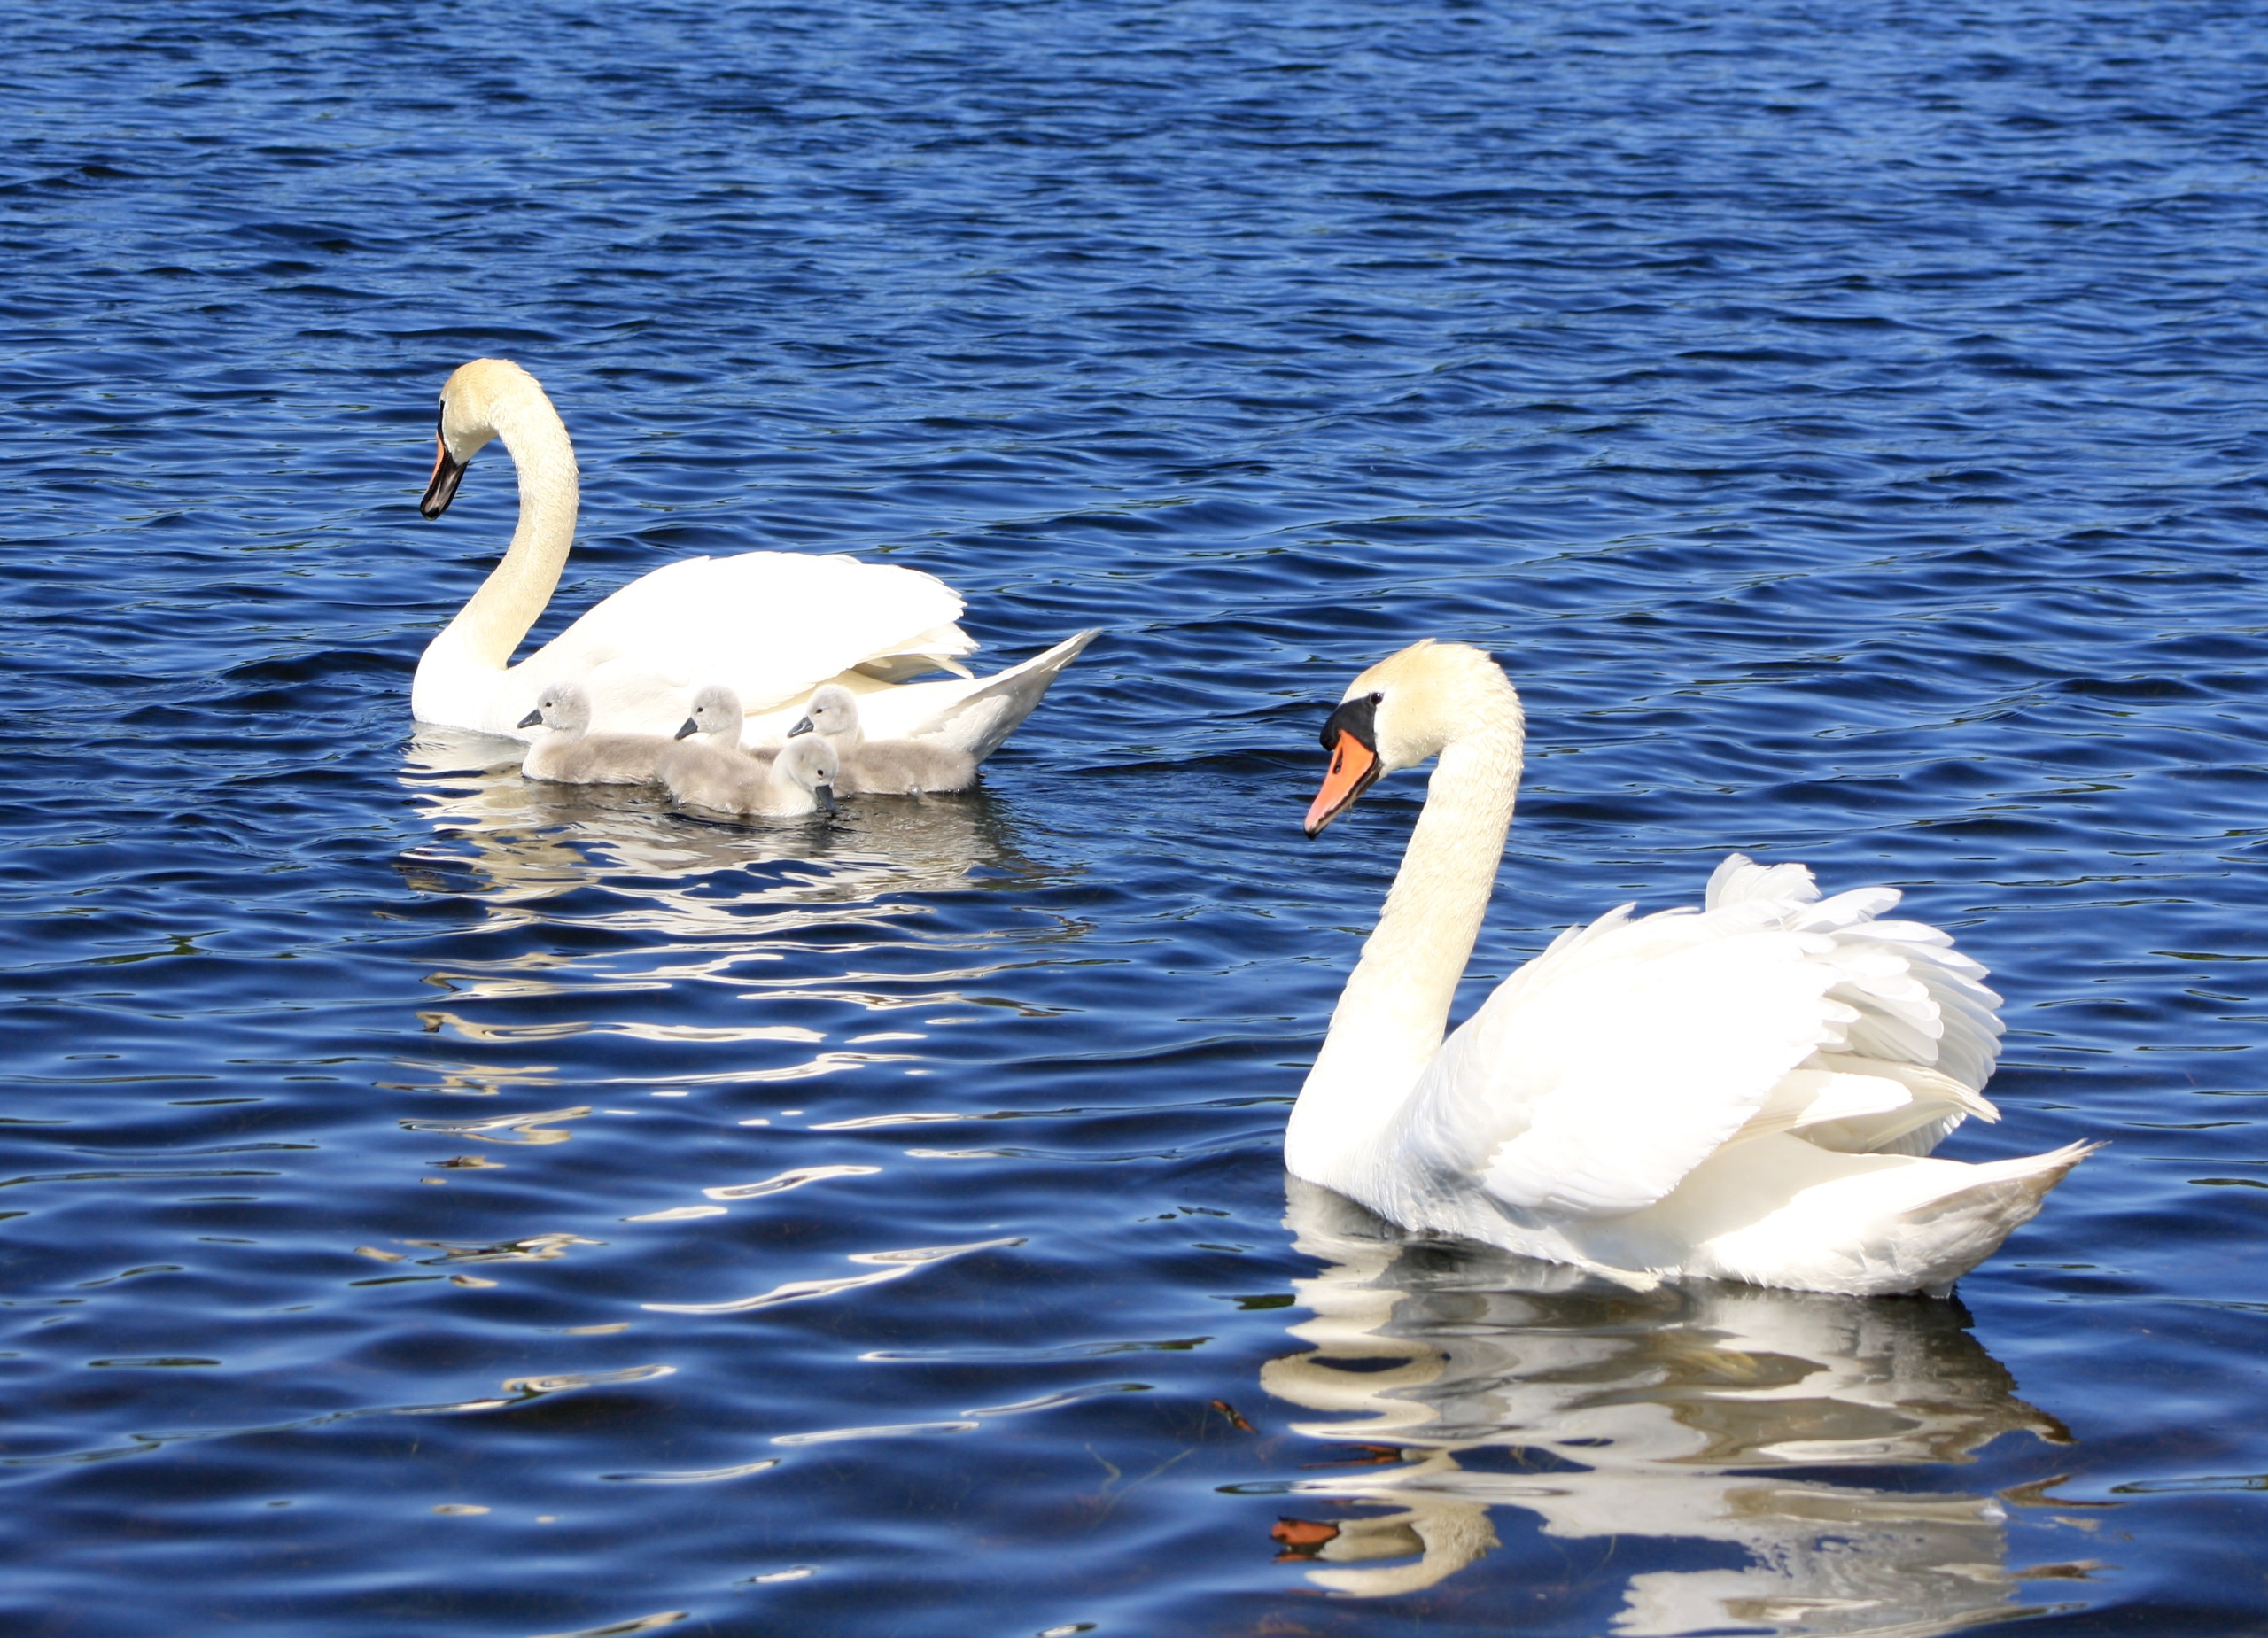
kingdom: Animalia
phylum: Chordata
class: Aves
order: Anseriformes
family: Anatidae
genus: Cygnus
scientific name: Cygnus olor
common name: Knopsvane
